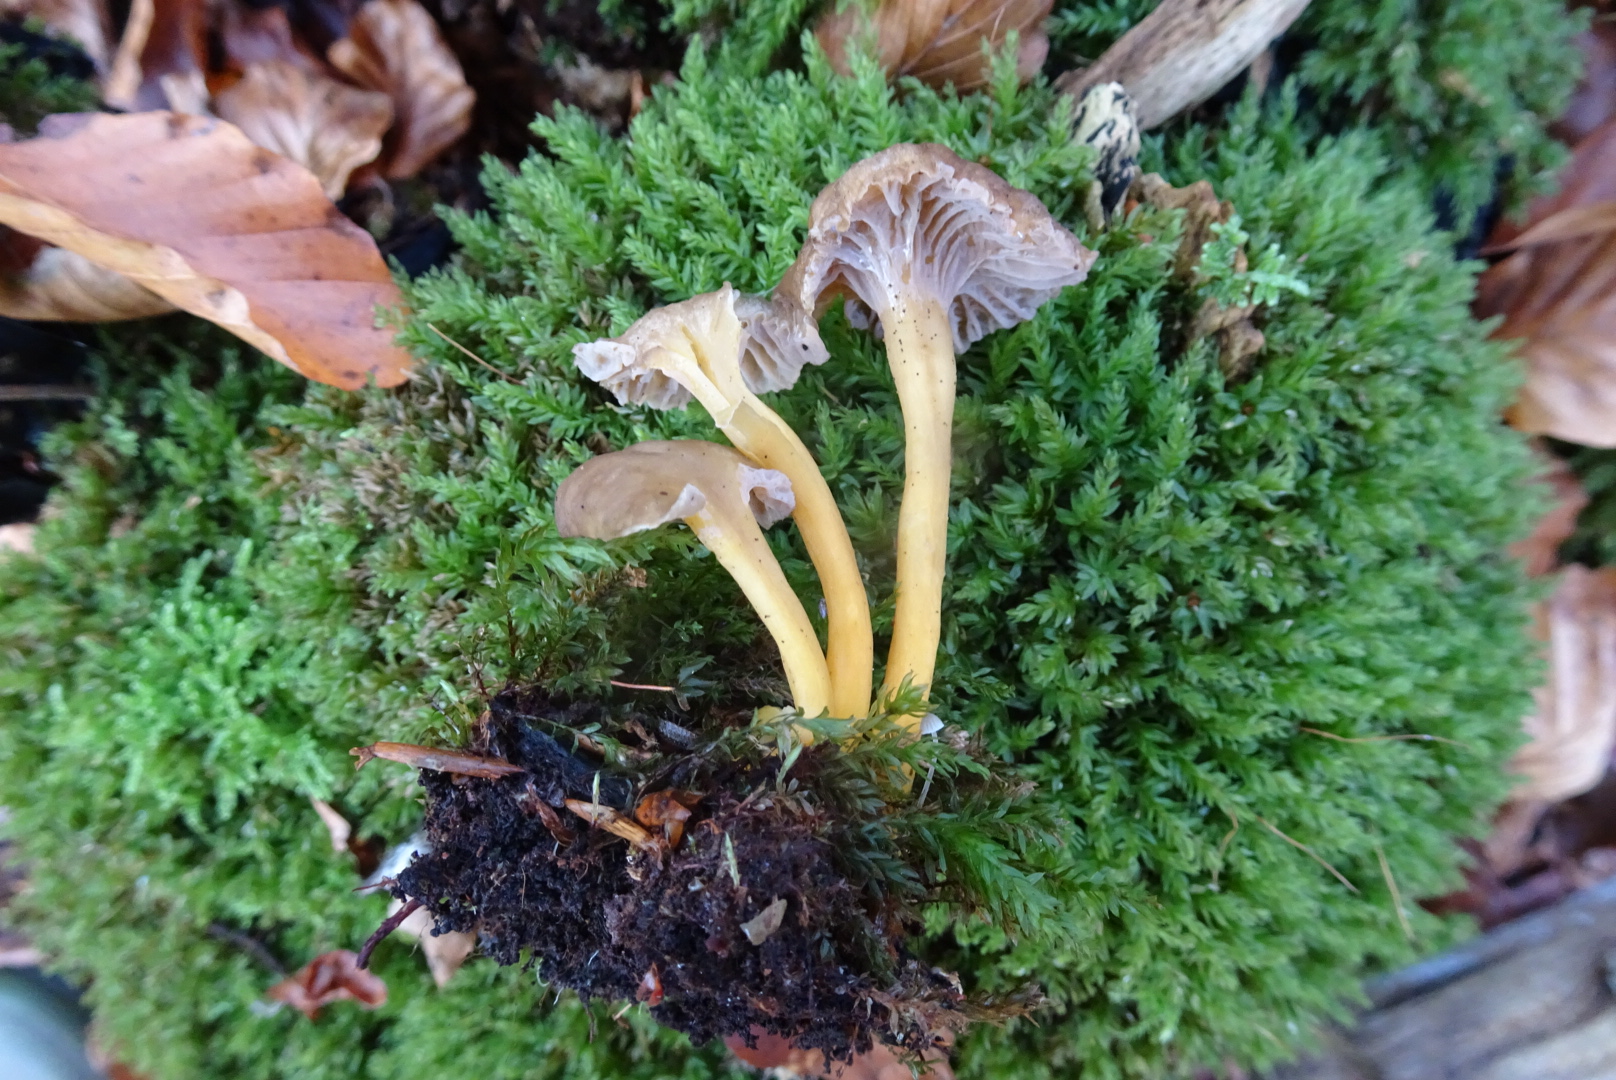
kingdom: Fungi
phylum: Basidiomycota
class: Agaricomycetes
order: Cantharellales
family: Hydnaceae
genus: Craterellus
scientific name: Craterellus tubaeformis
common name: tragt-kantarel
